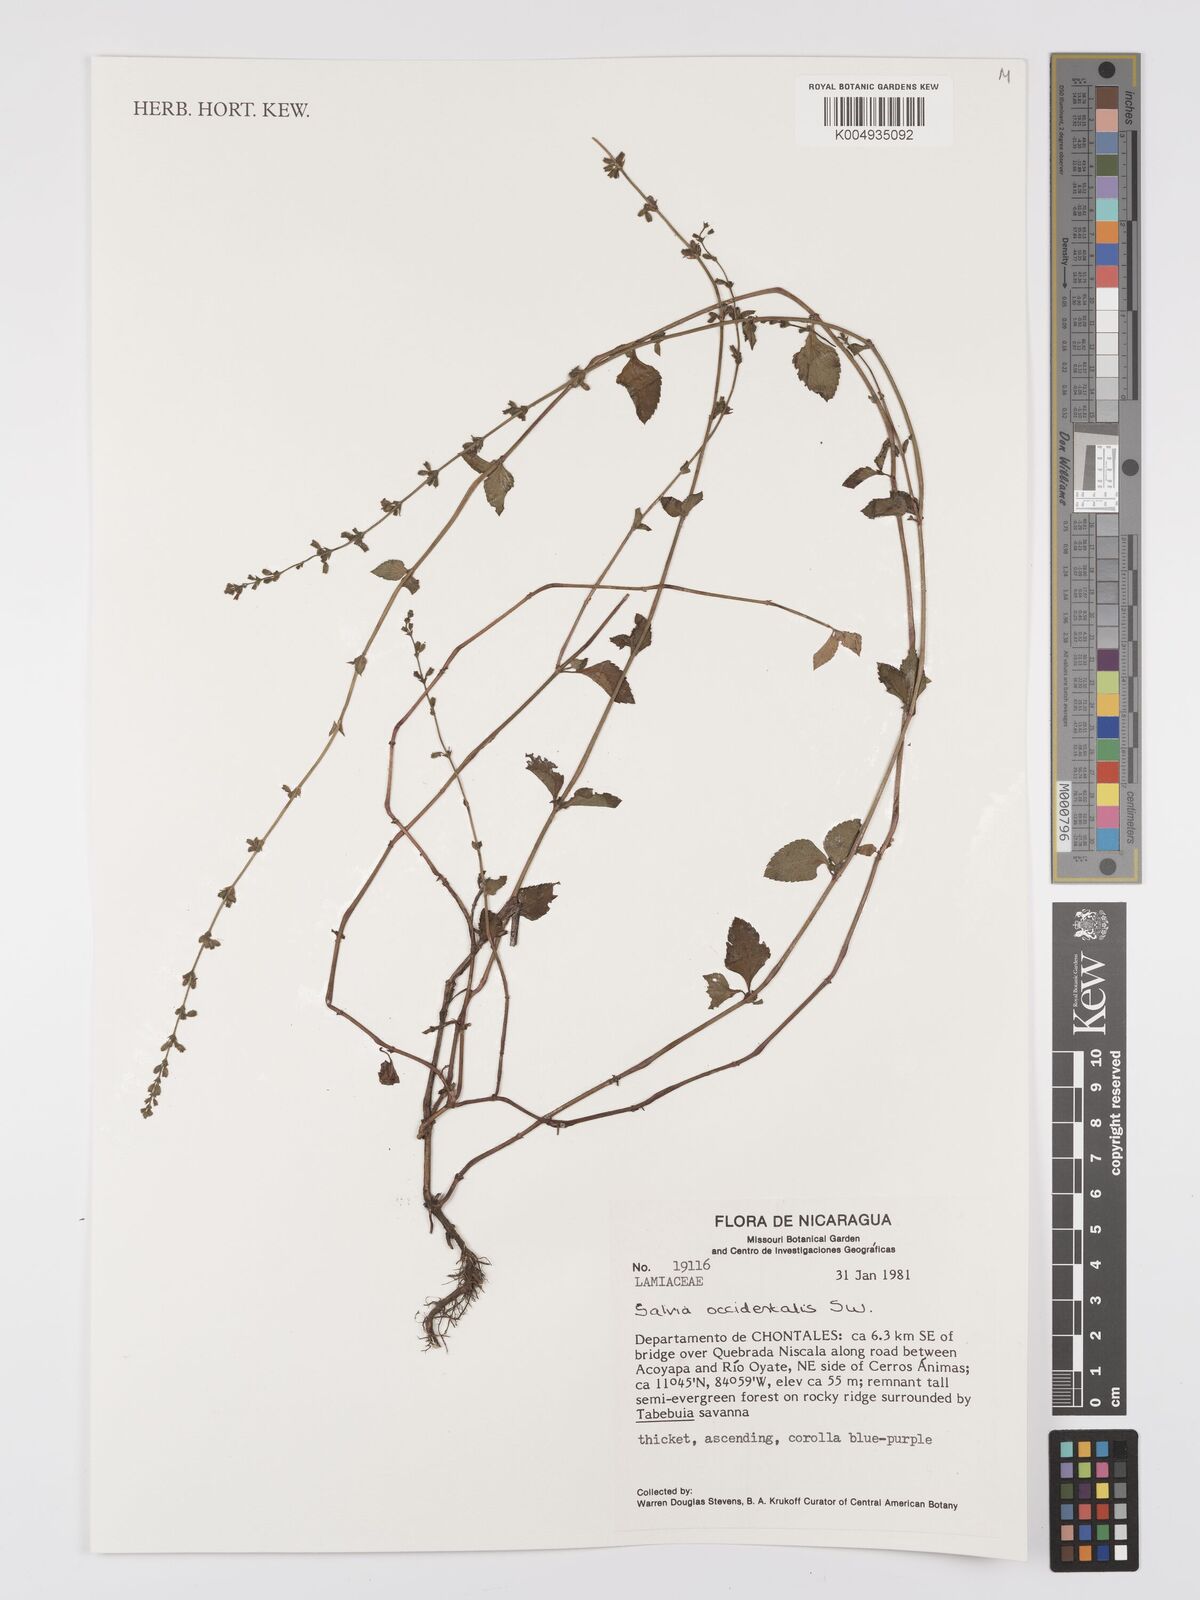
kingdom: Plantae
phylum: Tracheophyta
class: Magnoliopsida
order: Lamiales
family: Lamiaceae
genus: Salvia
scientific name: Salvia occidentalis
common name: West indian sage
